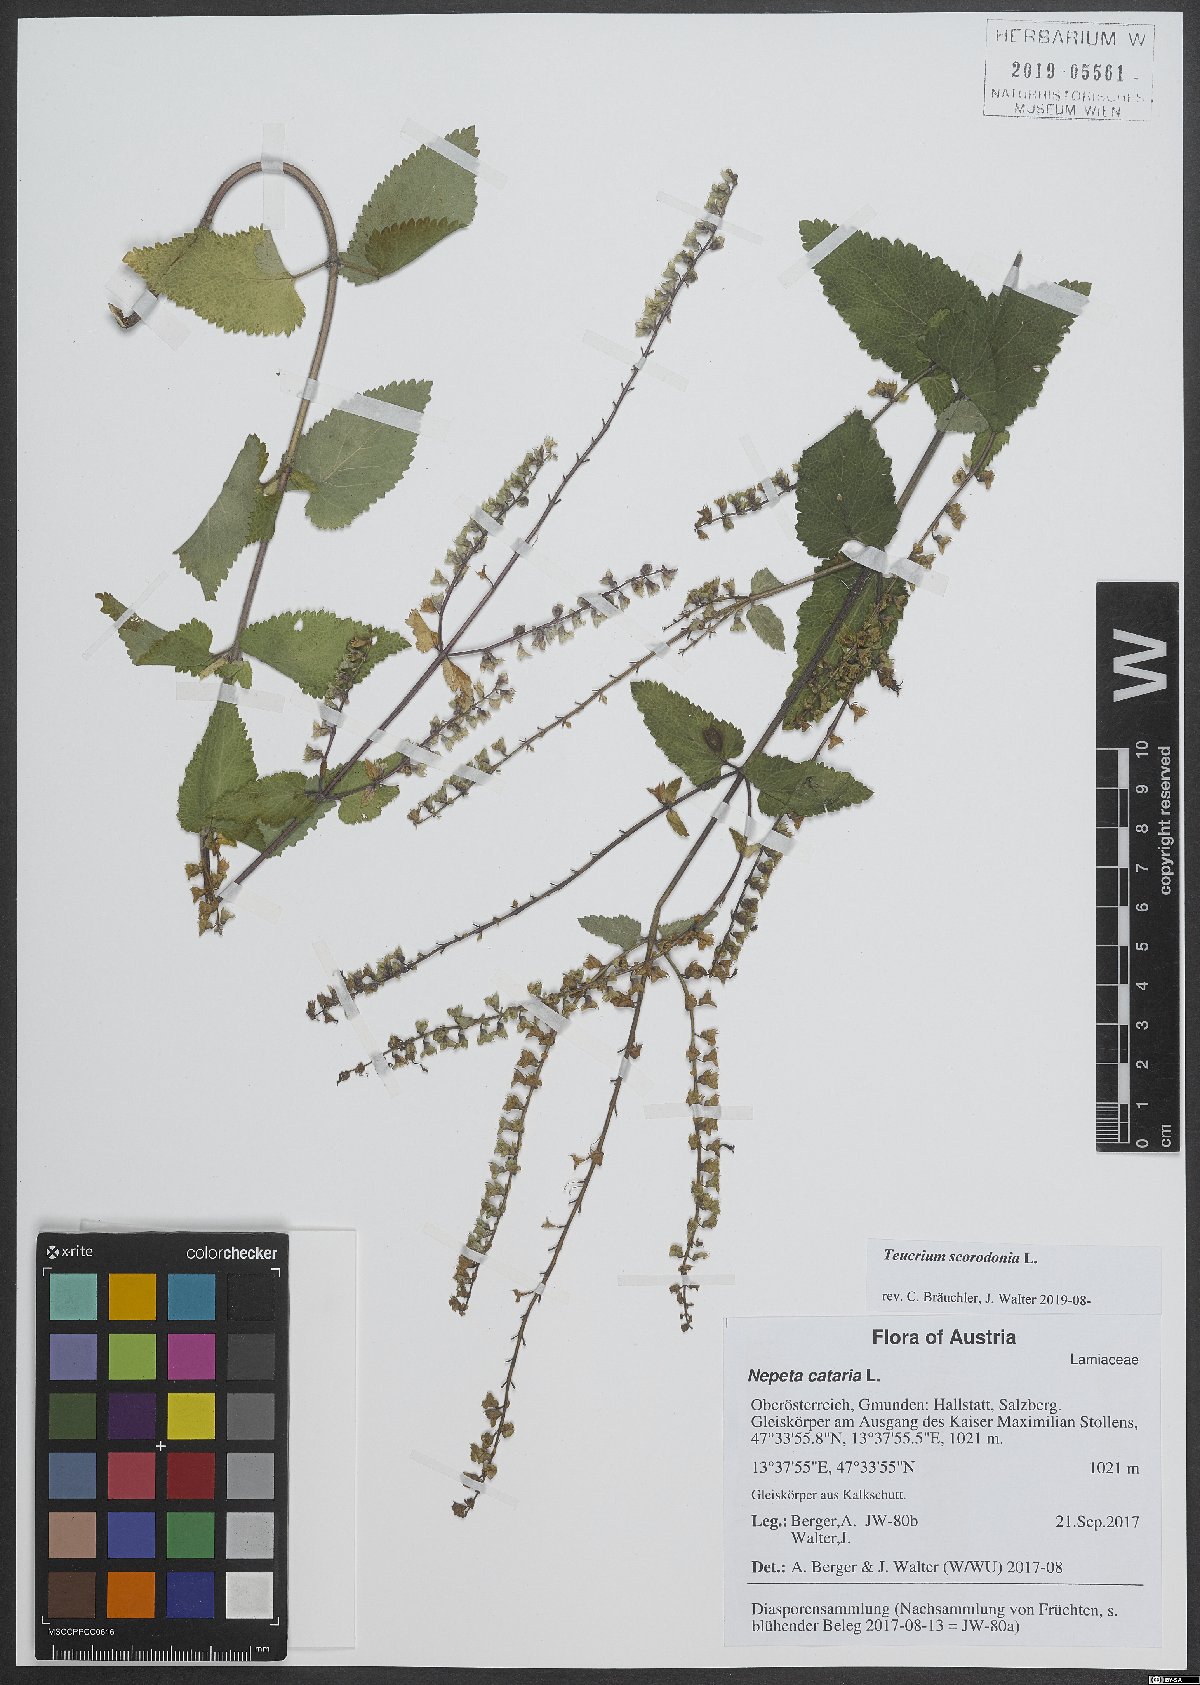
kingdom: Plantae
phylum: Tracheophyta
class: Magnoliopsida
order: Lamiales
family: Lamiaceae
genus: Teucrium
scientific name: Teucrium scorodonia
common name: Woodland germander
